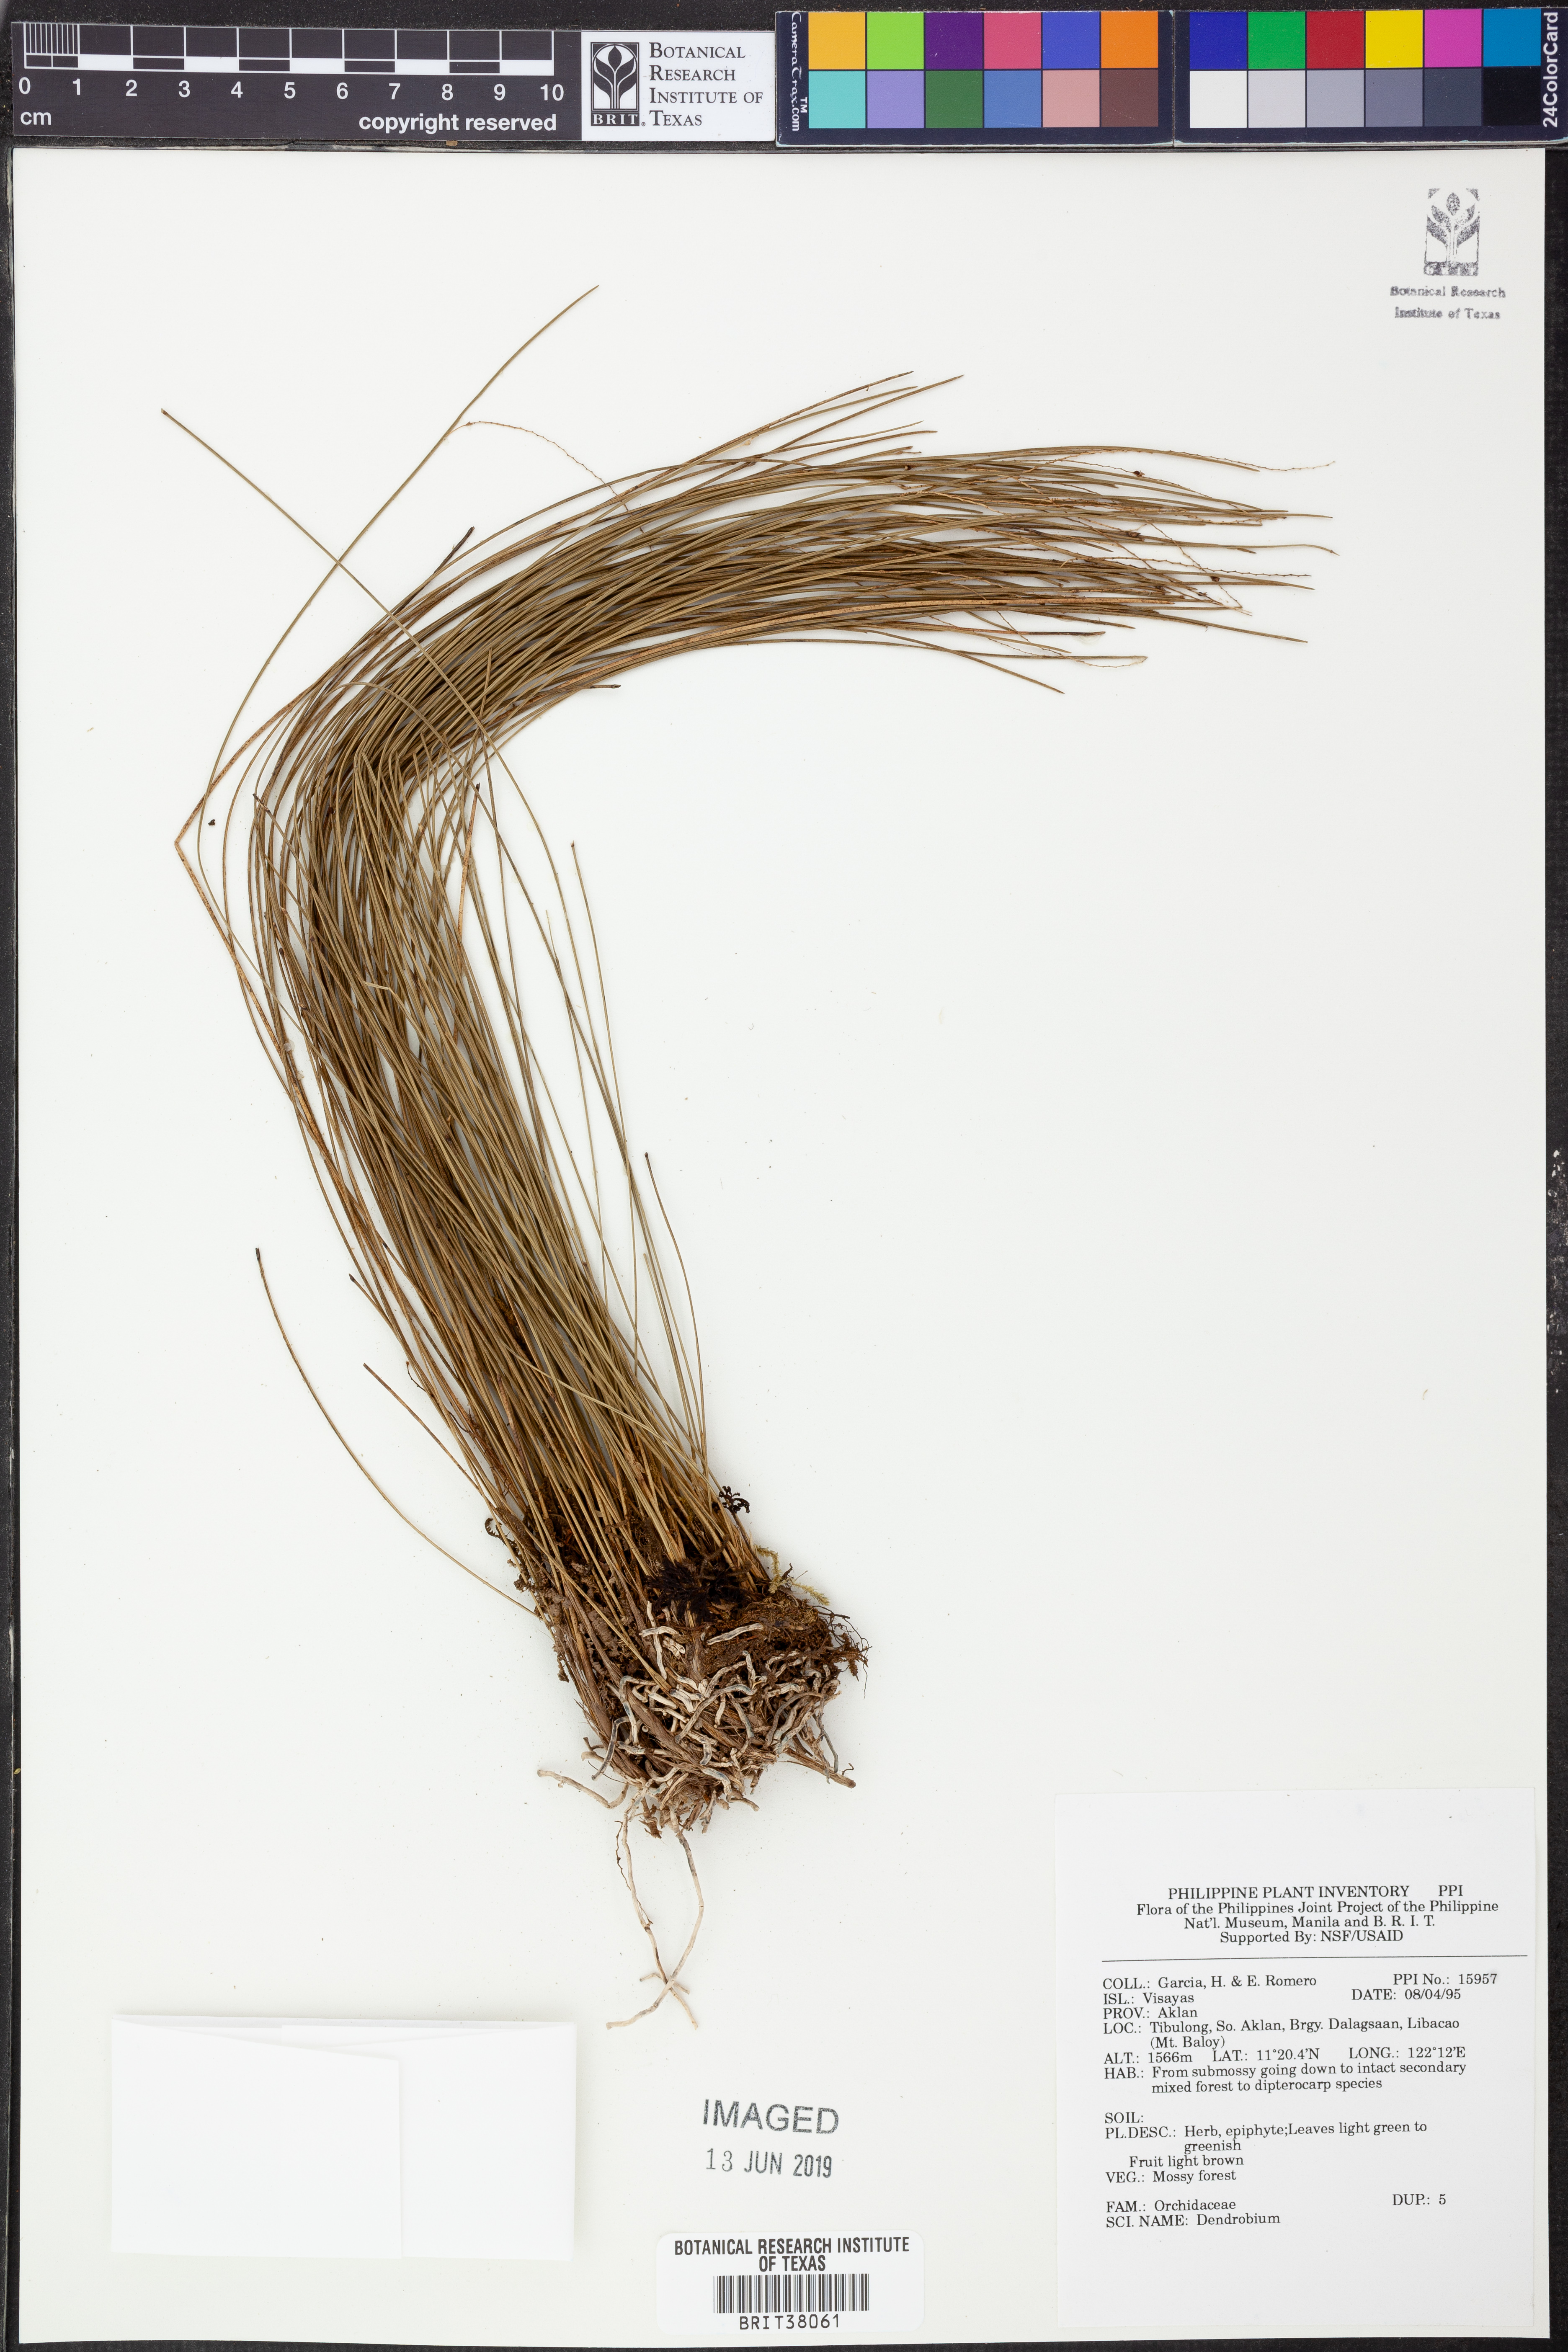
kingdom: Plantae
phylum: Tracheophyta
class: Liliopsida
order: Asparagales
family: Orchidaceae
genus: Dendrobium
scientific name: Dendrobium
